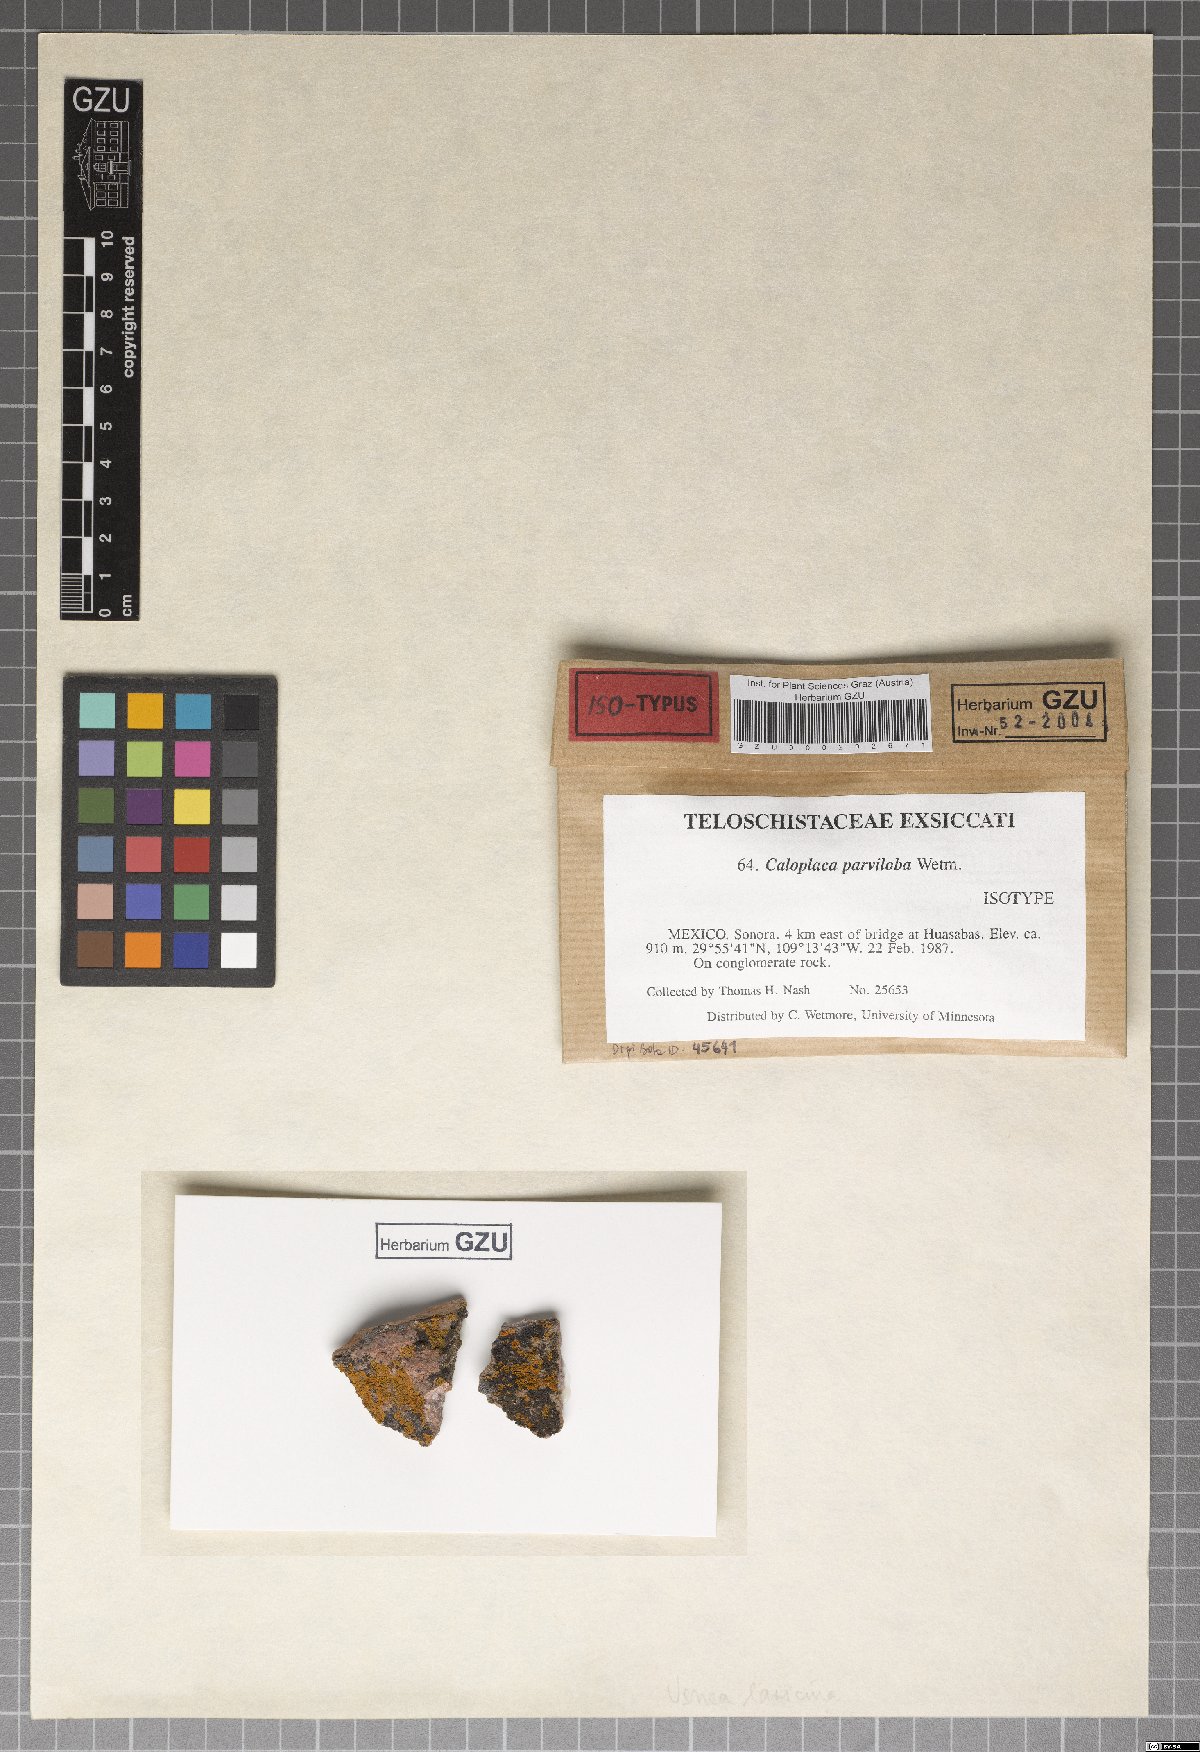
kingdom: Fungi
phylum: Ascomycota
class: Lecanoromycetes
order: Teloschistales
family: Teloschistaceae
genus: Squamulea
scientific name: Squamulea parviloba
